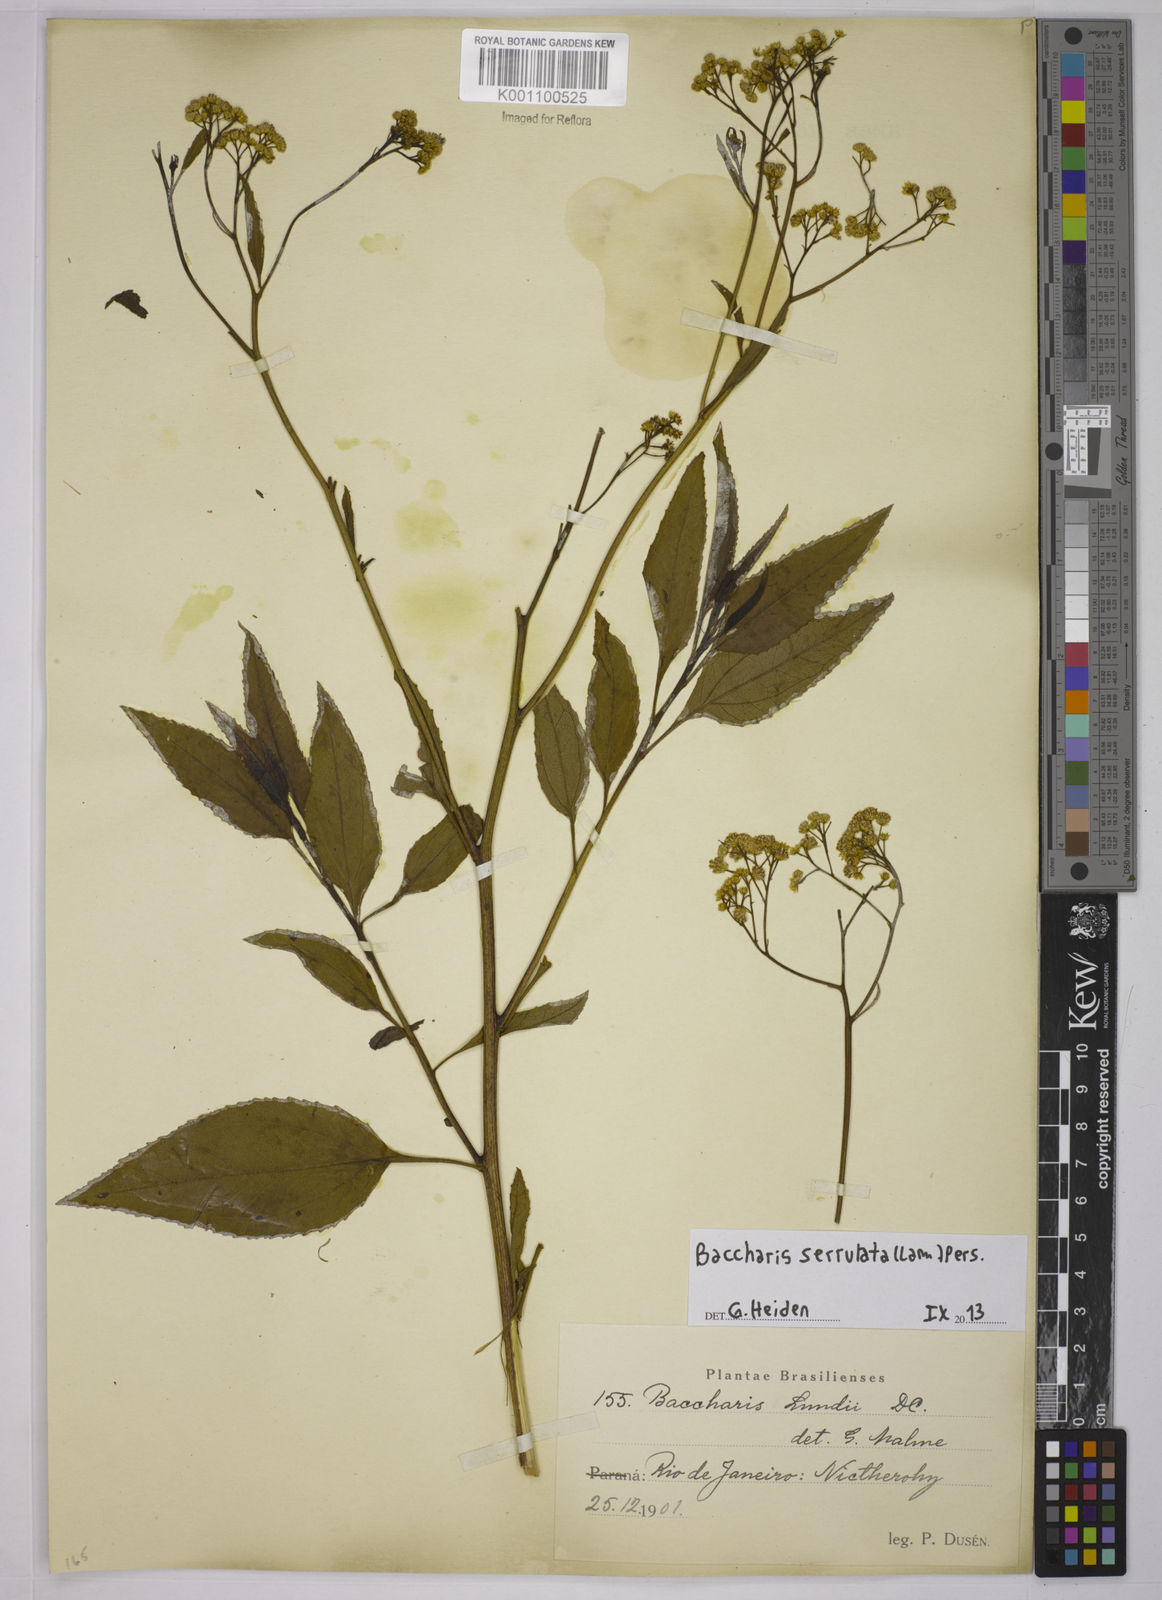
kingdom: Plantae
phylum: Tracheophyta
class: Magnoliopsida
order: Asterales
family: Asteraceae
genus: Baccharis
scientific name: Baccharis serrulata
